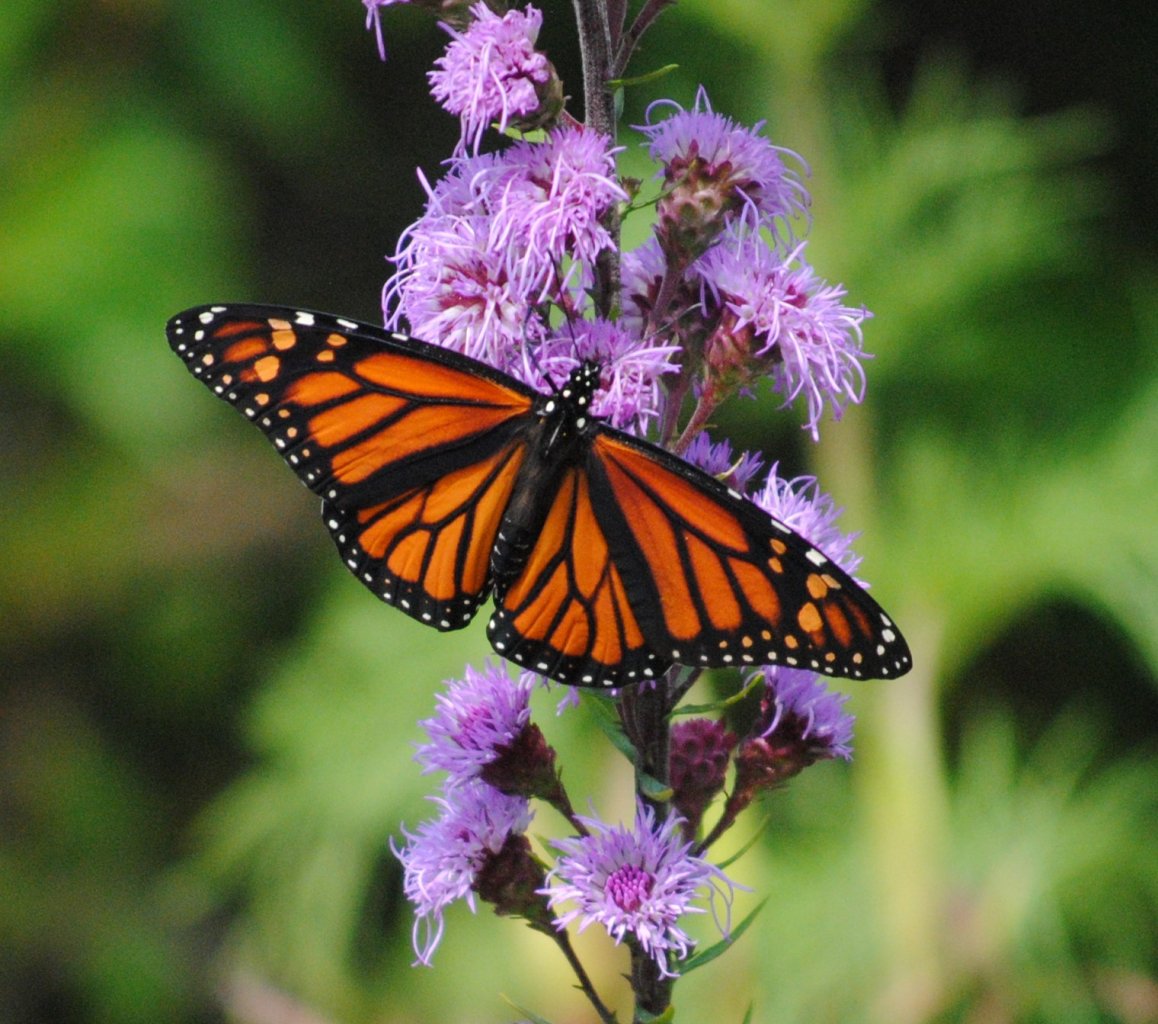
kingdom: Animalia
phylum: Arthropoda
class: Insecta
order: Lepidoptera
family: Nymphalidae
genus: Danaus
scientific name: Danaus plexippus
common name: Monarch
